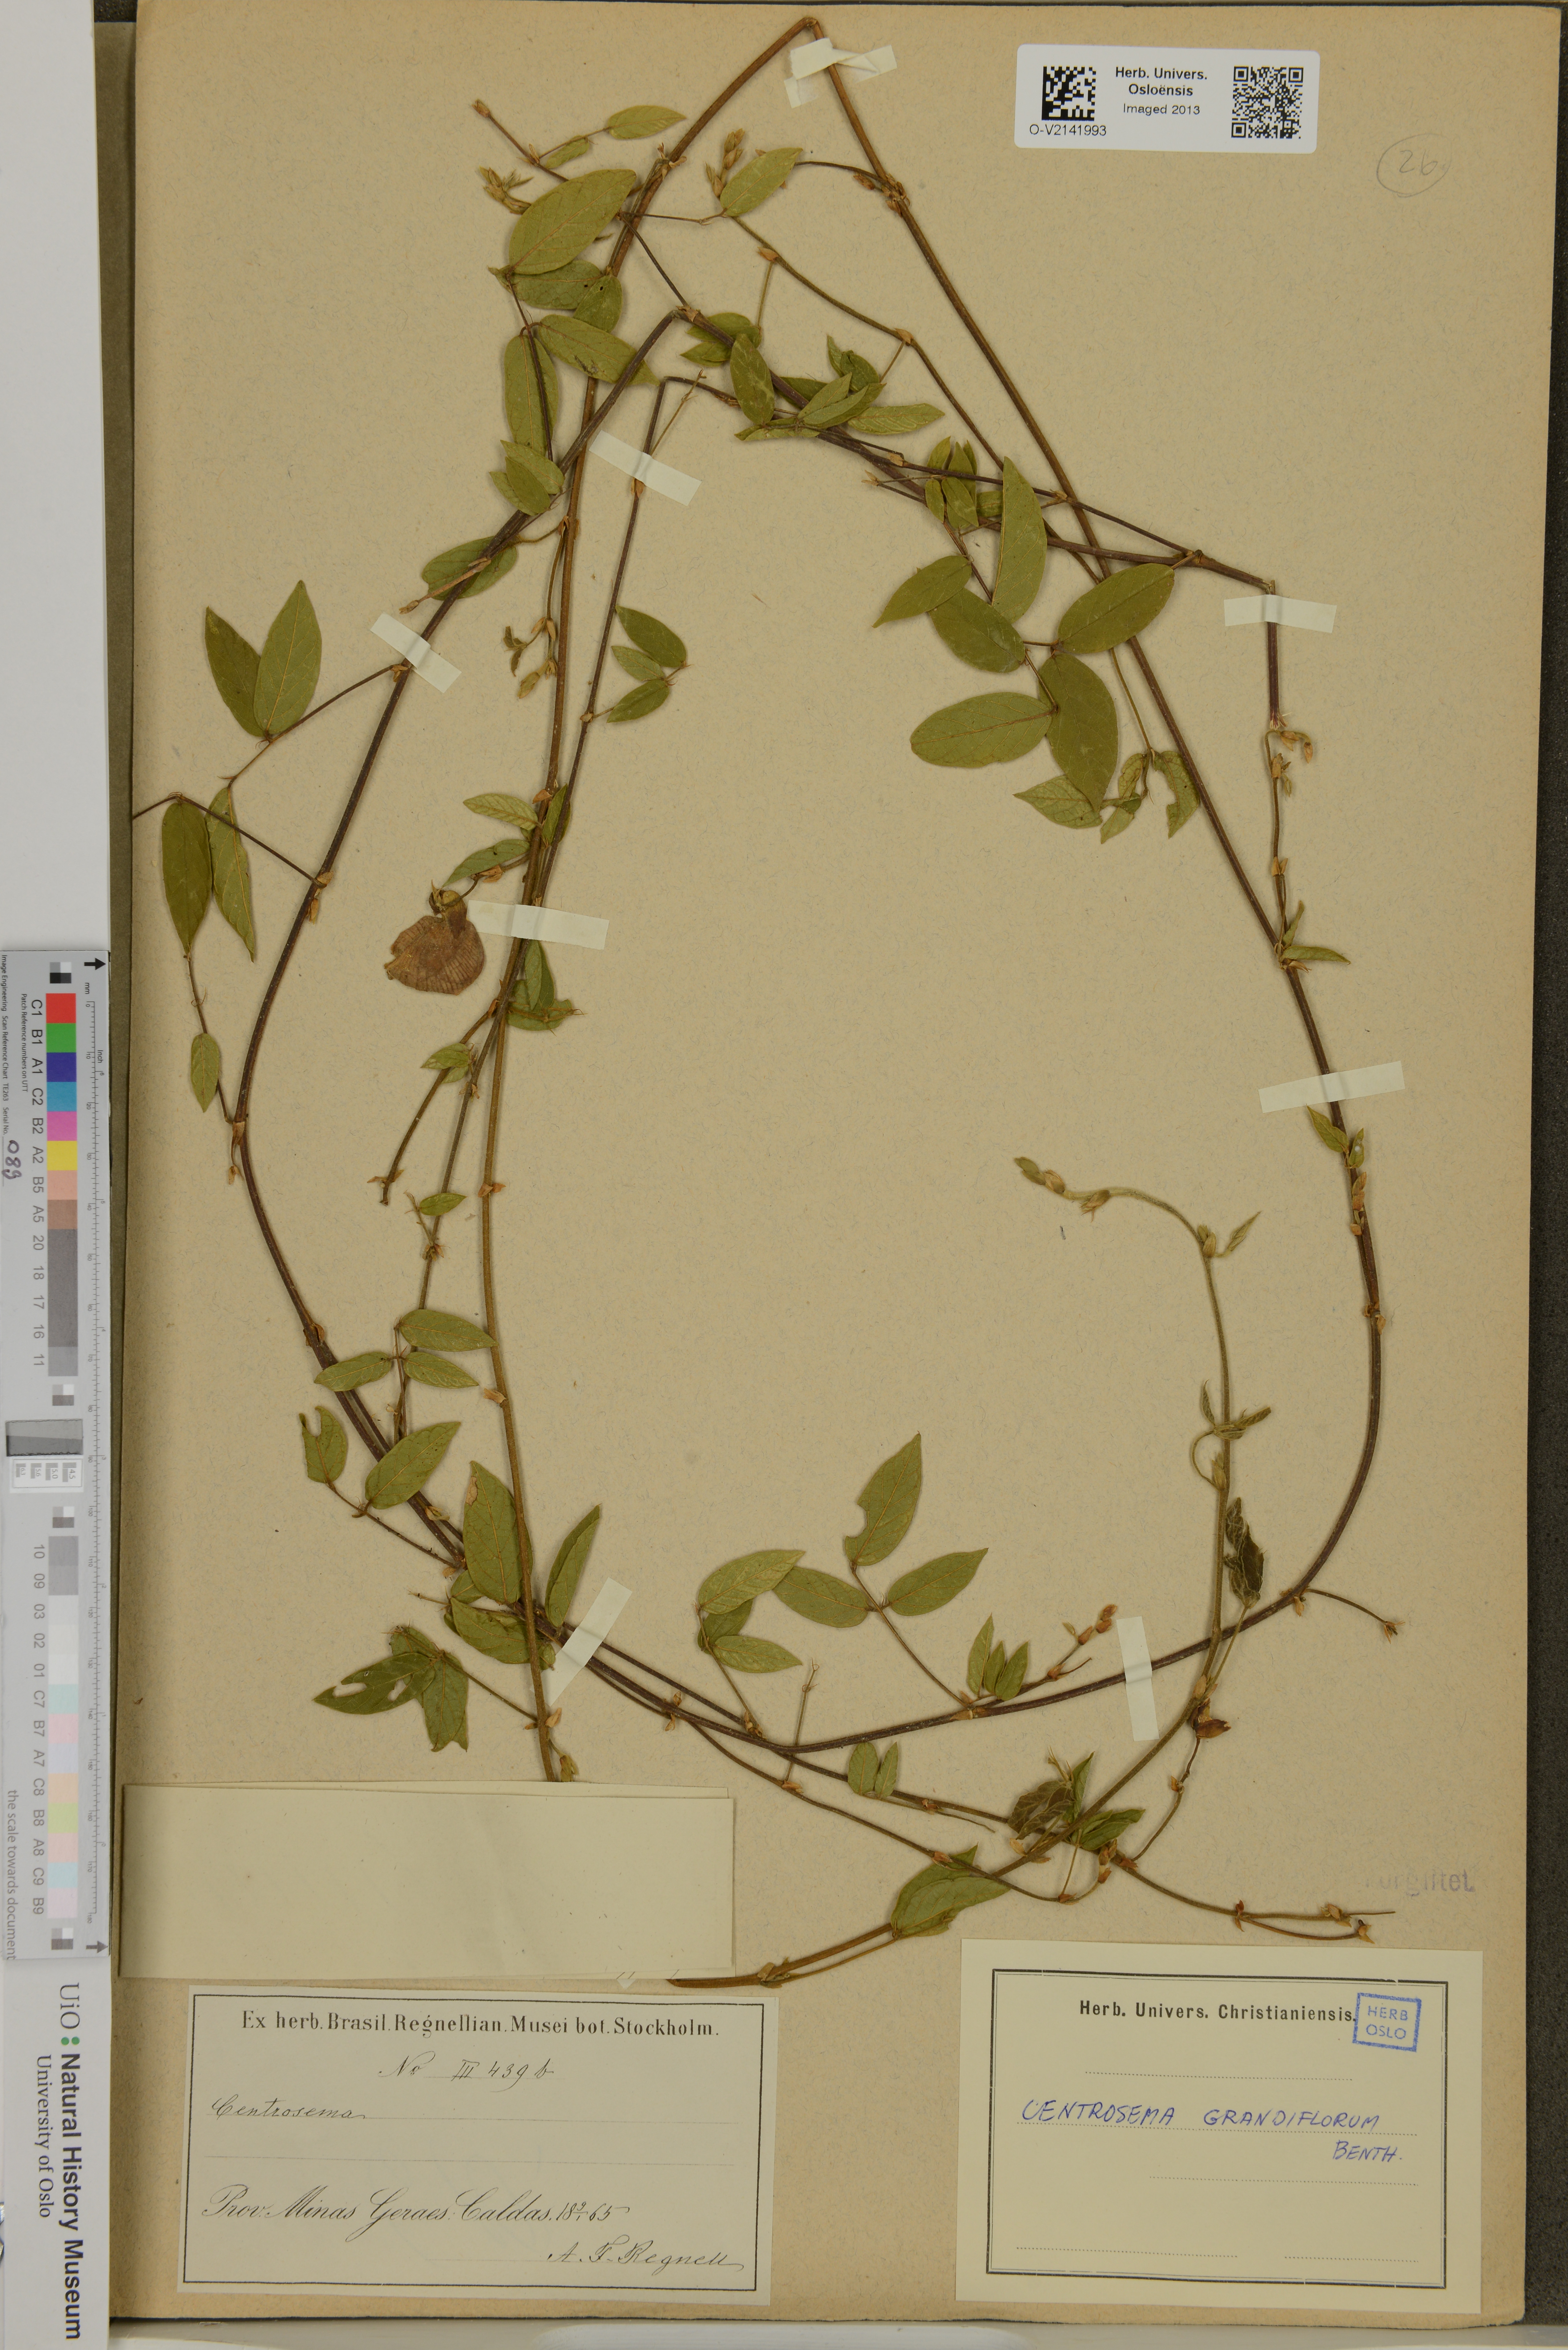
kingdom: Plantae
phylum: Tracheophyta
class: Magnoliopsida
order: Fabales
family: Fabaceae
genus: Centrosema
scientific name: Centrosema grandiflorum
